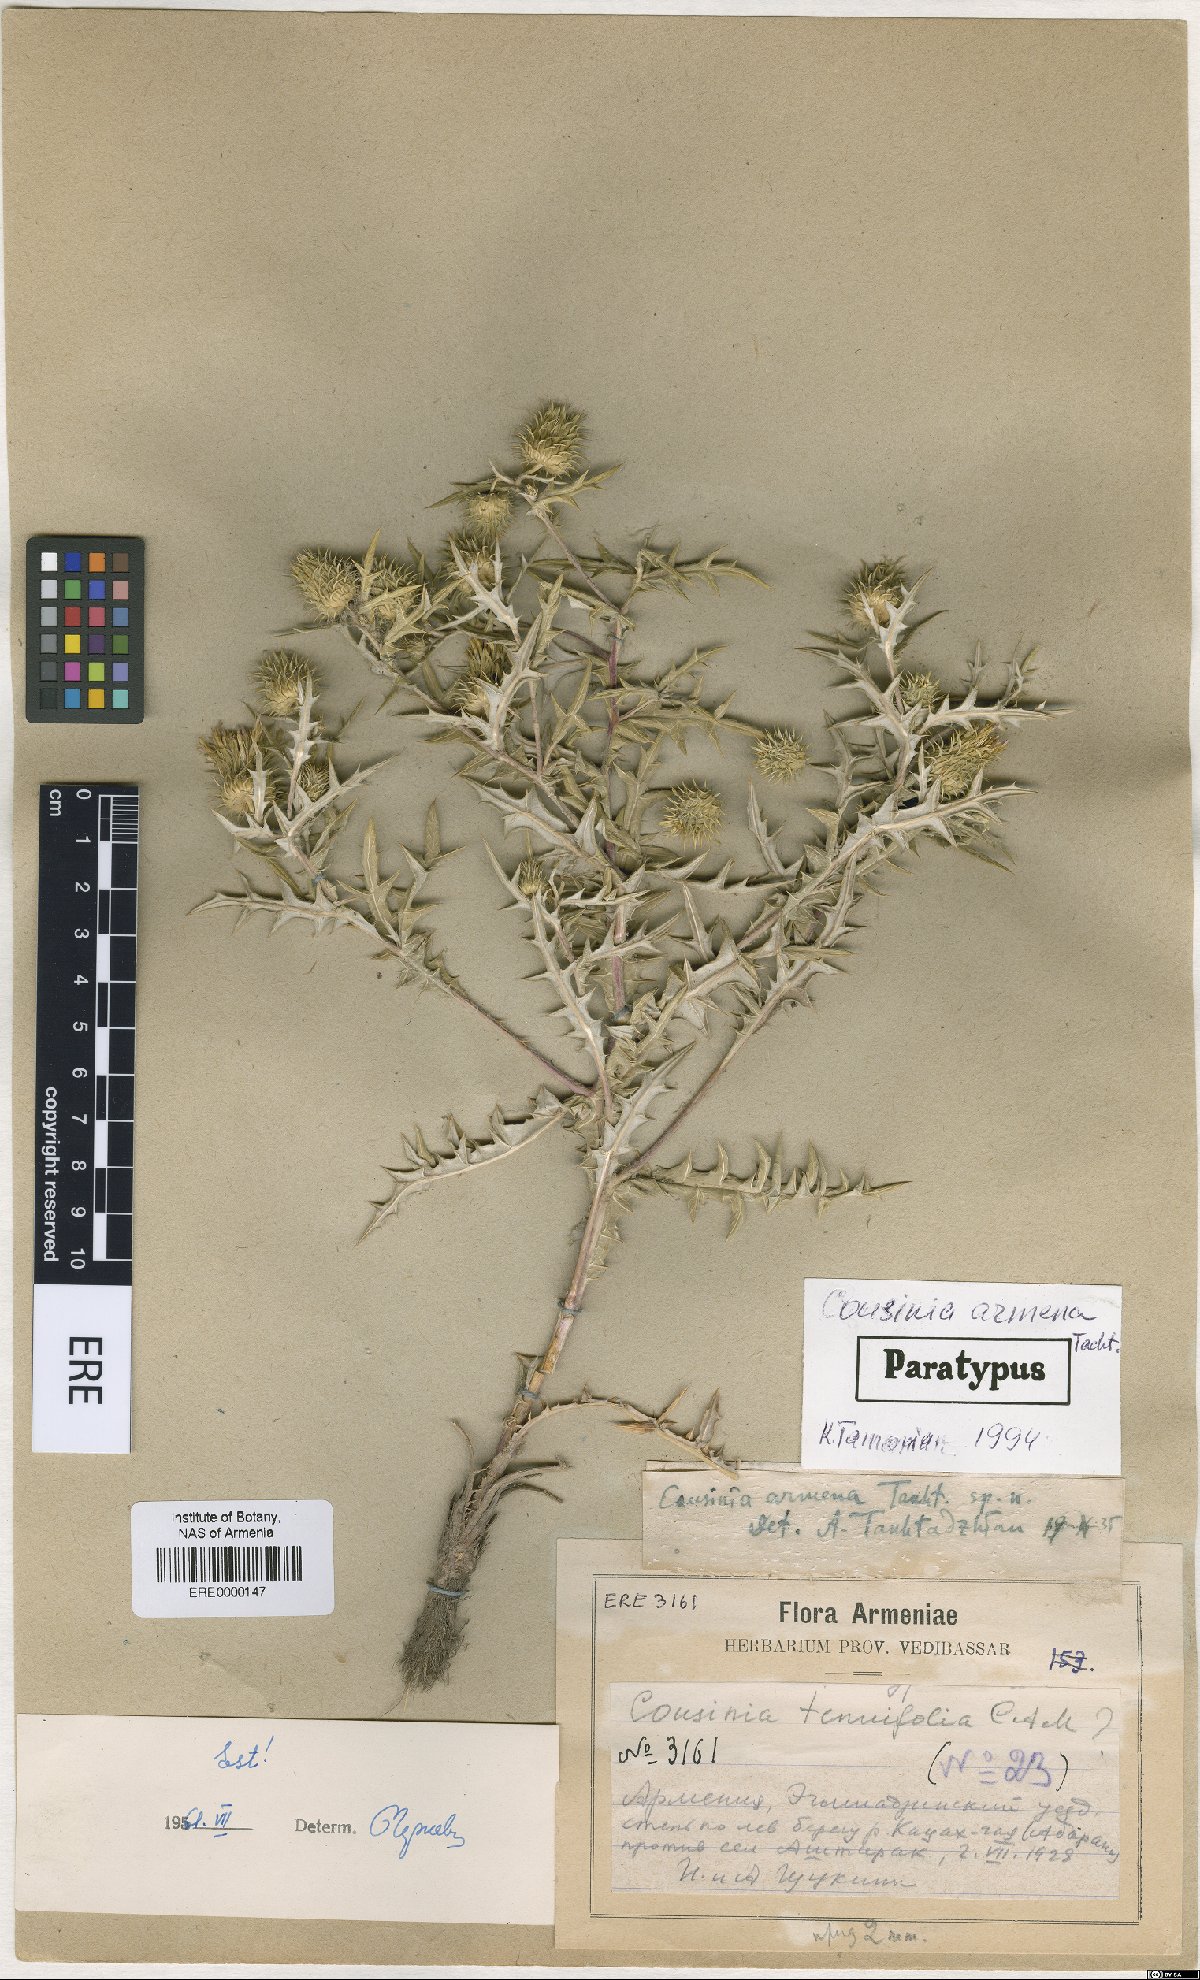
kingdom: Plantae
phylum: Tracheophyta
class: Magnoliopsida
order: Asterales
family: Asteraceae
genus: Cousinia
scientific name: Cousinia armena
